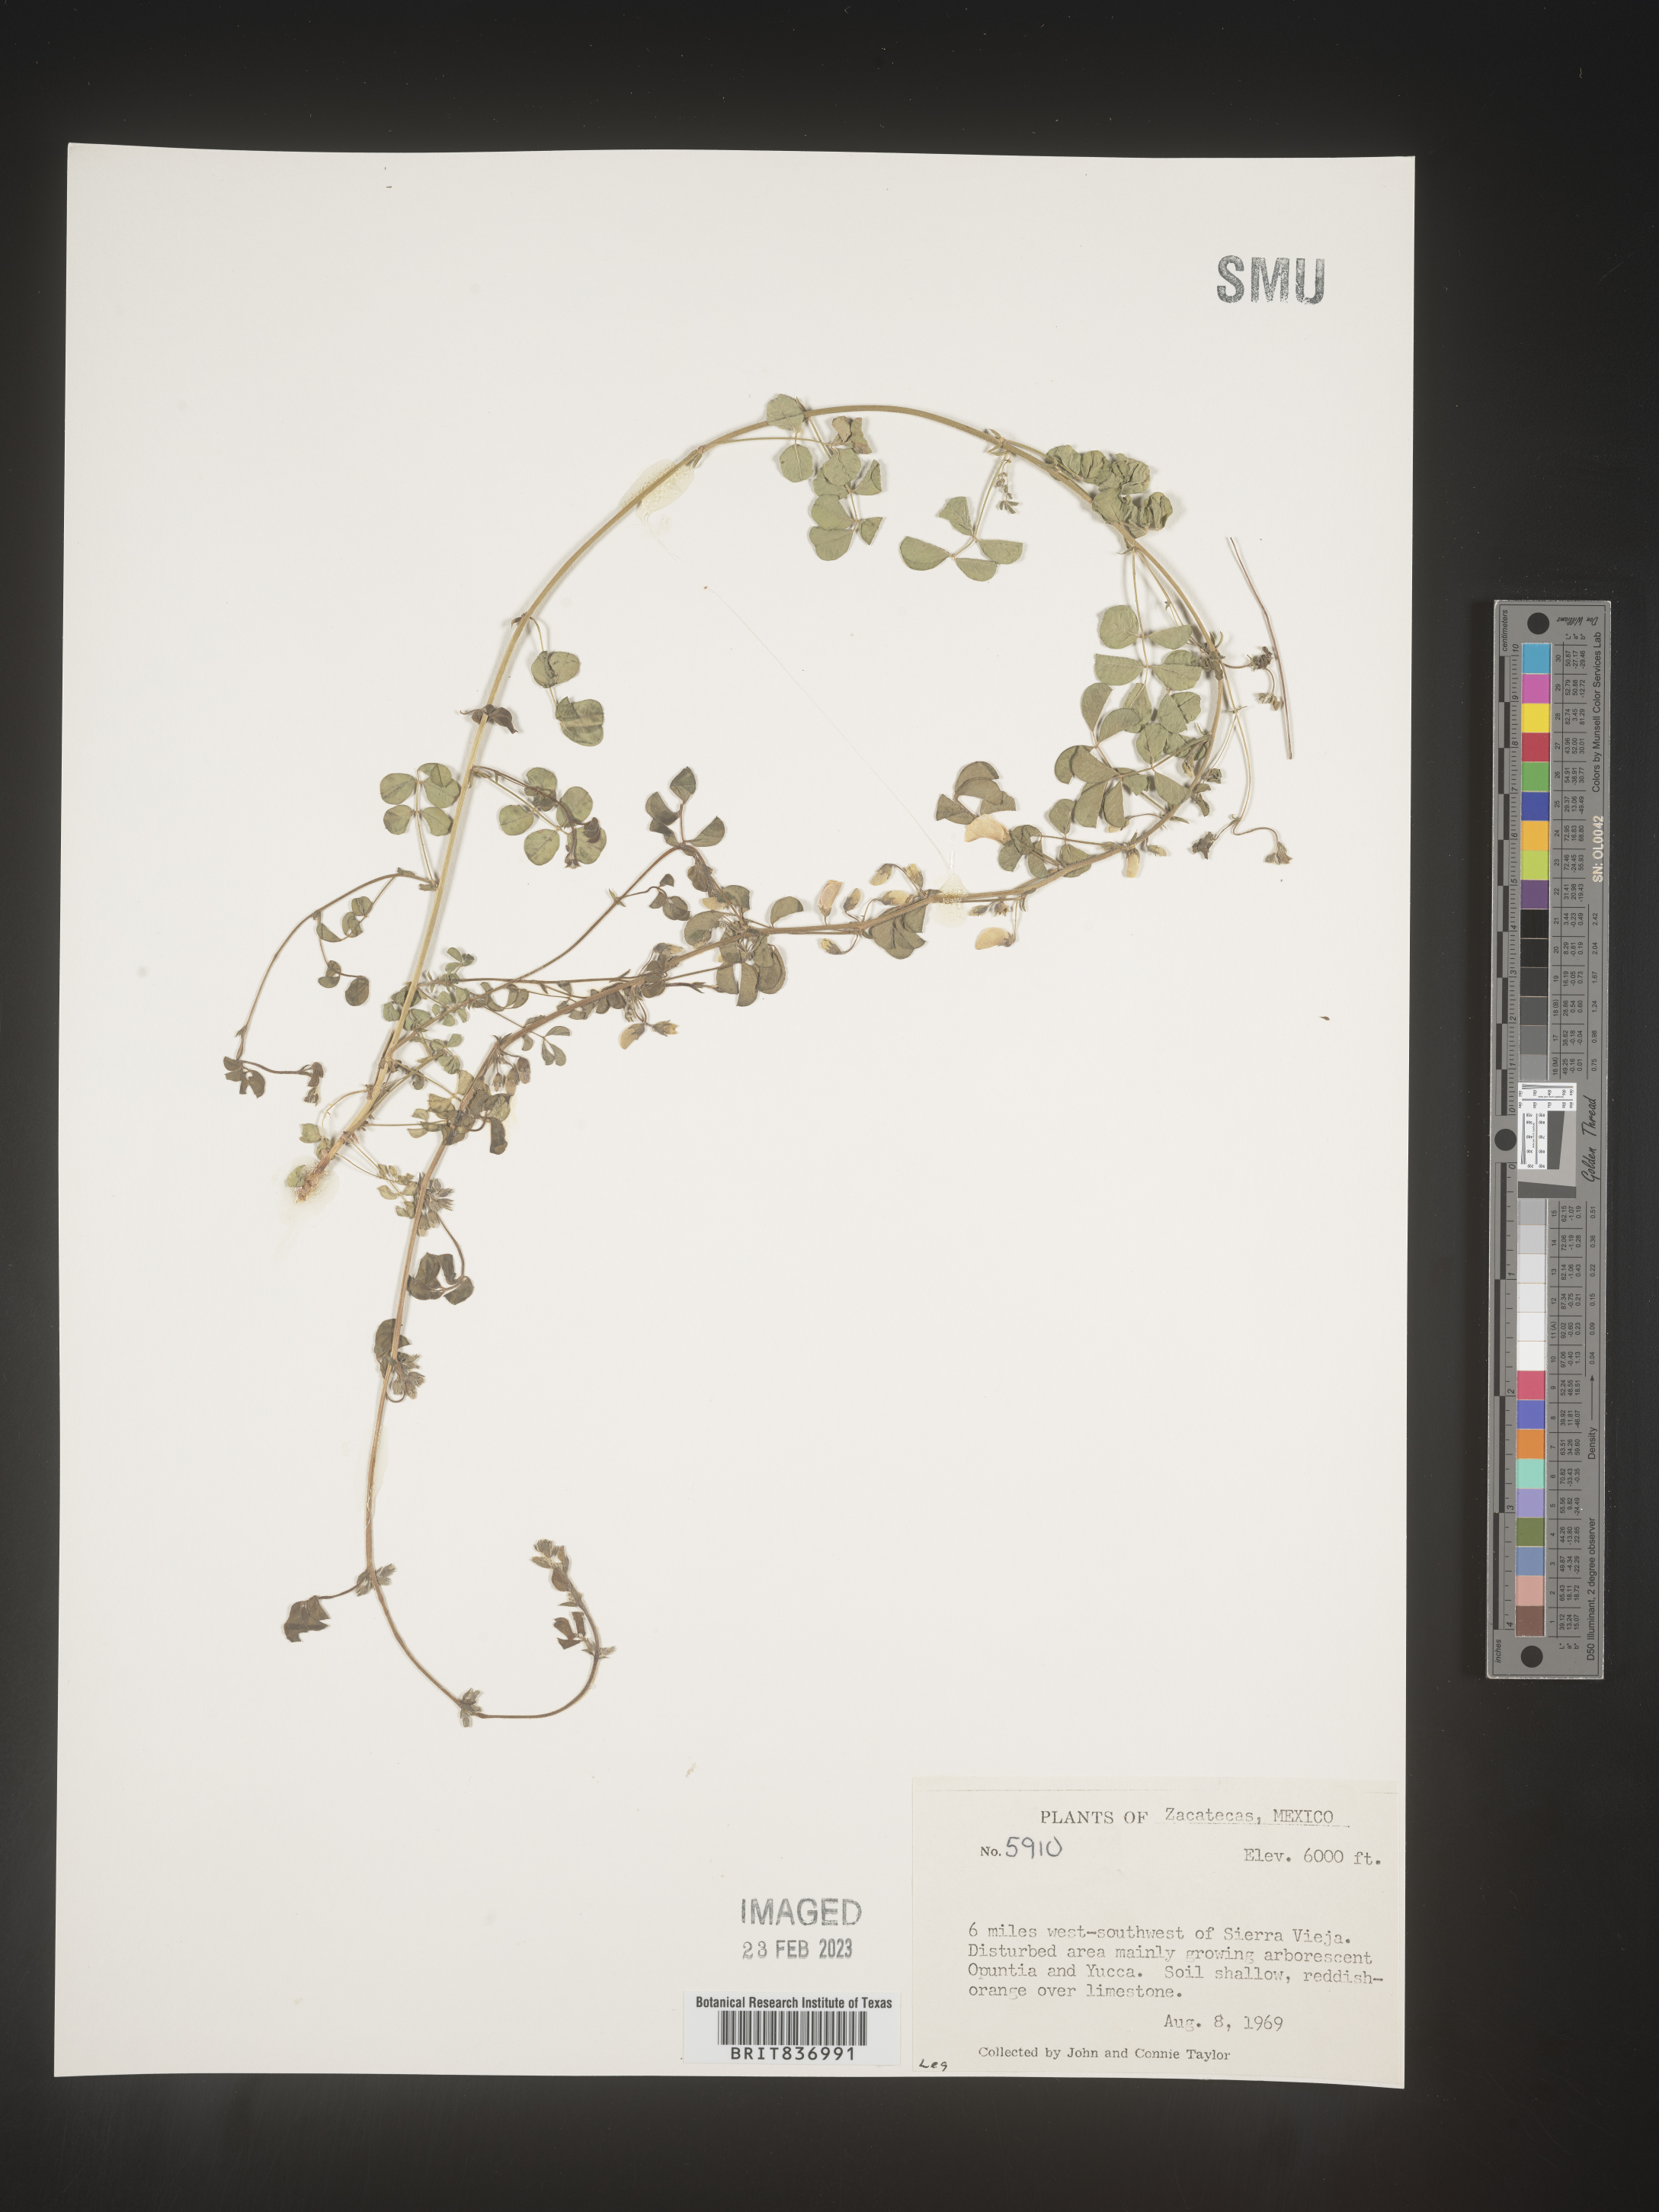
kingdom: Plantae
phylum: Tracheophyta
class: Magnoliopsida
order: Fabales
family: Fabaceae
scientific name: Fabaceae
